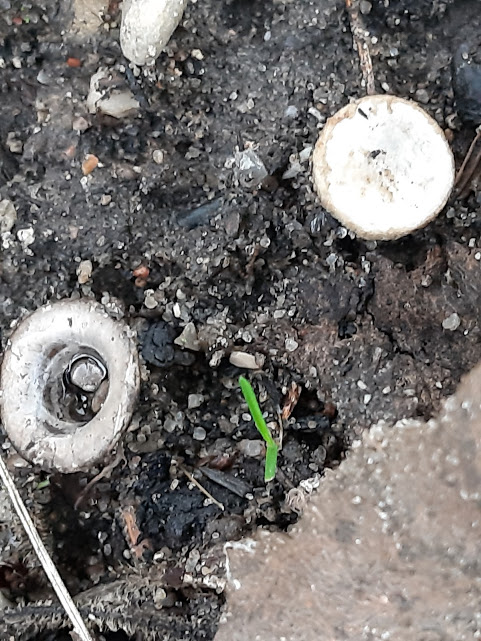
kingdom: Fungi
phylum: Basidiomycota
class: Agaricomycetes
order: Agaricales
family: Agaricaceae
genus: Cyathus
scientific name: Cyathus olla
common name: klokke-redesvamp
